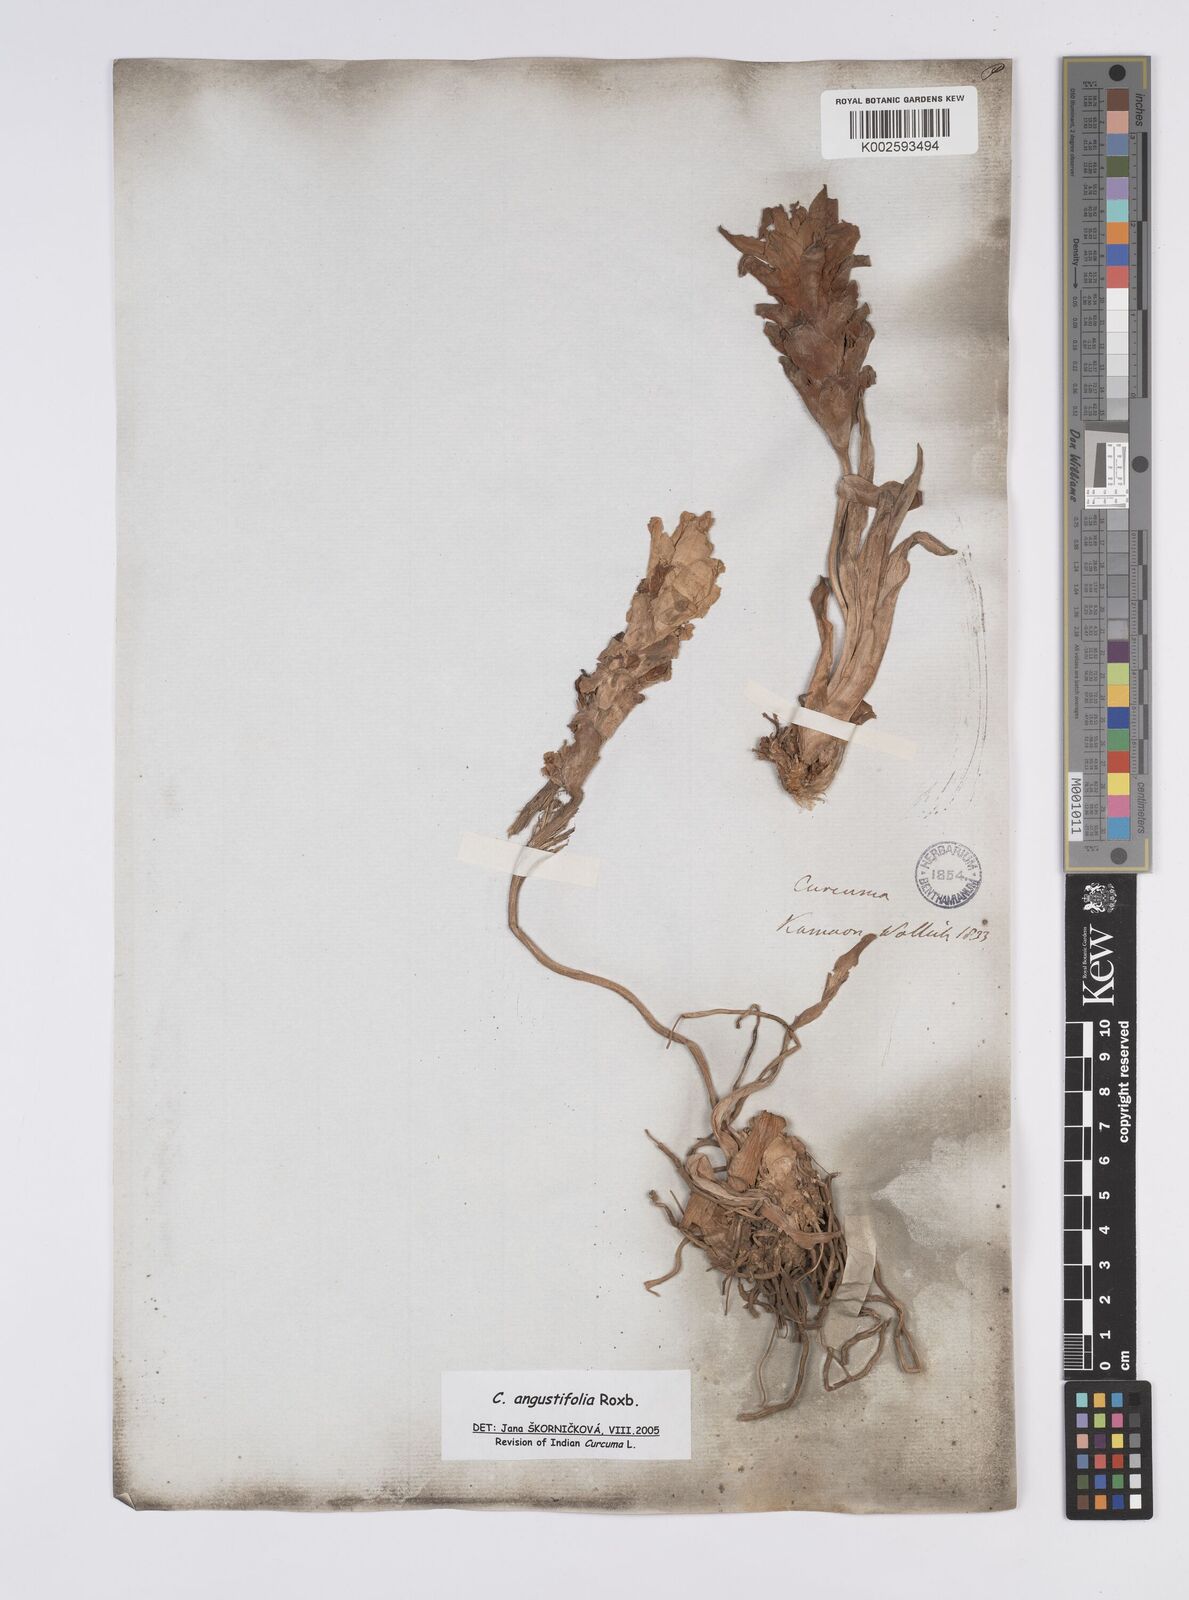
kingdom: Plantae
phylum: Tracheophyta
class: Liliopsida
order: Zingiberales
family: Zingiberaceae
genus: Curcuma
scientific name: Curcuma angustifolia
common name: East indian arrowroot
